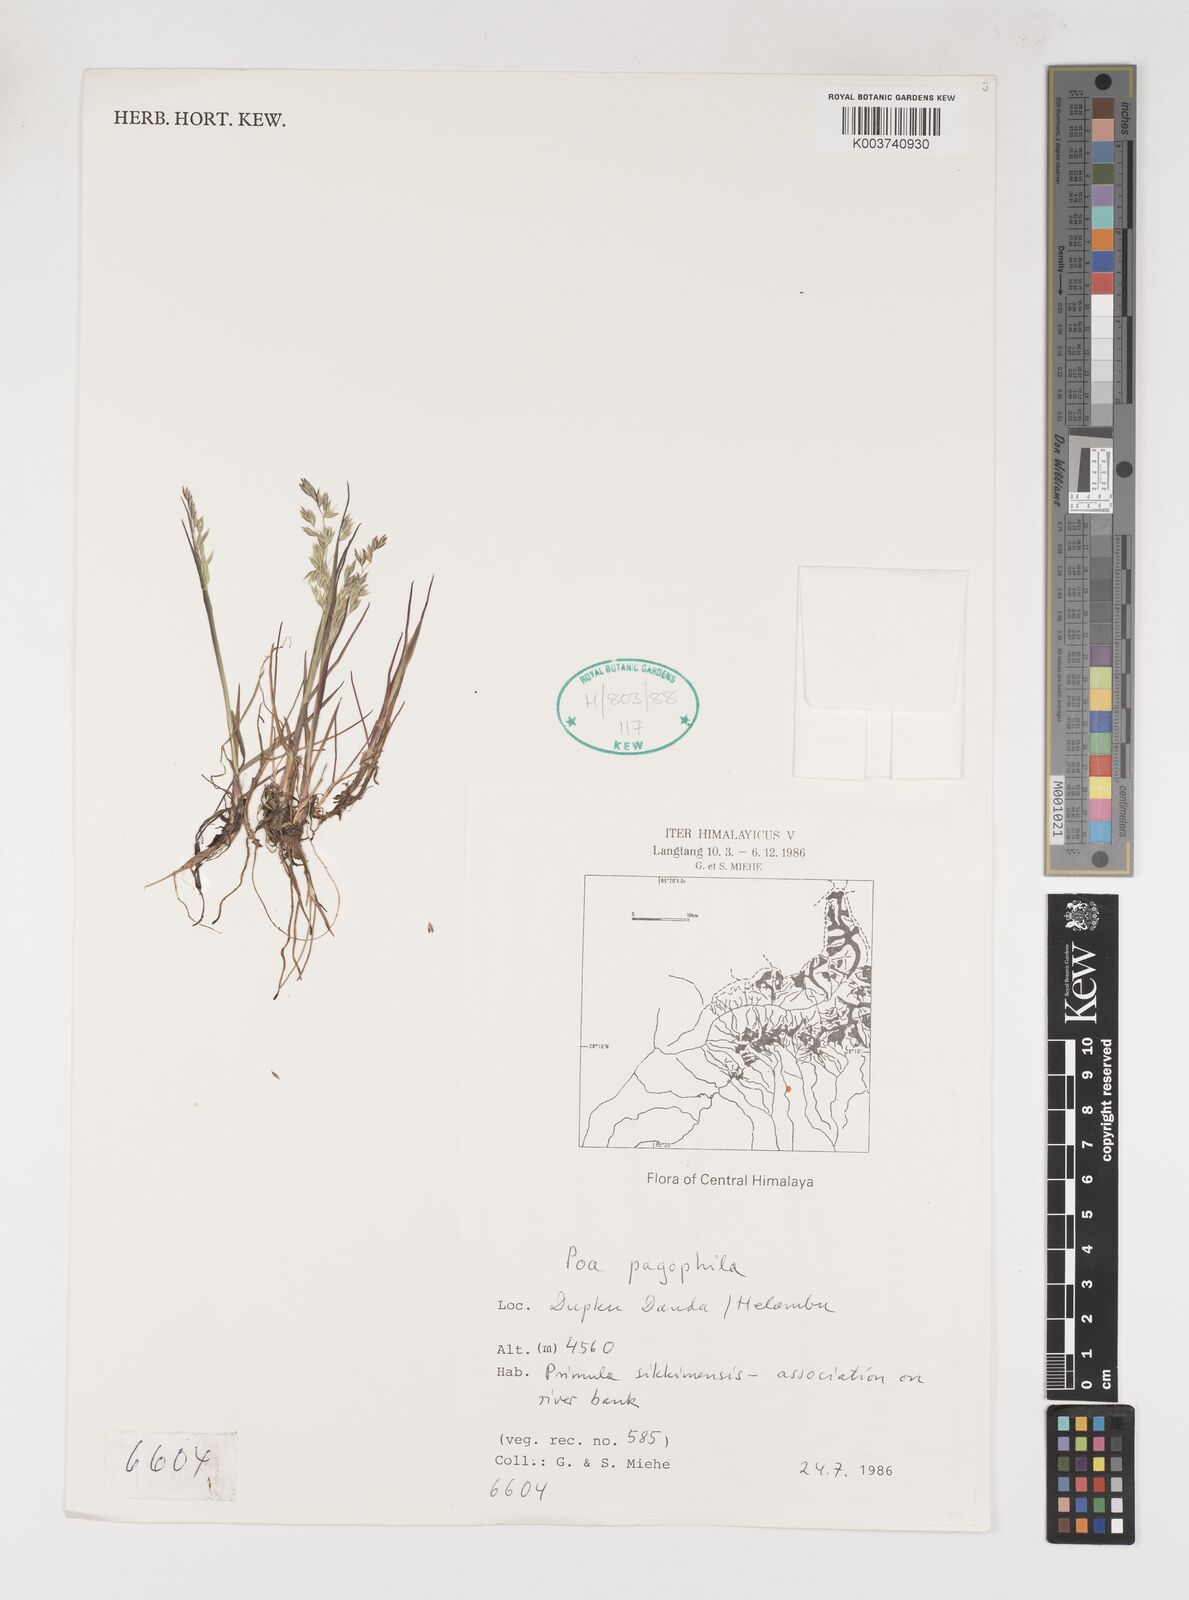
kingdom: Plantae
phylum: Tracheophyta
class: Liliopsida
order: Poales
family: Poaceae
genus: Poa
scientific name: Poa pagophila
